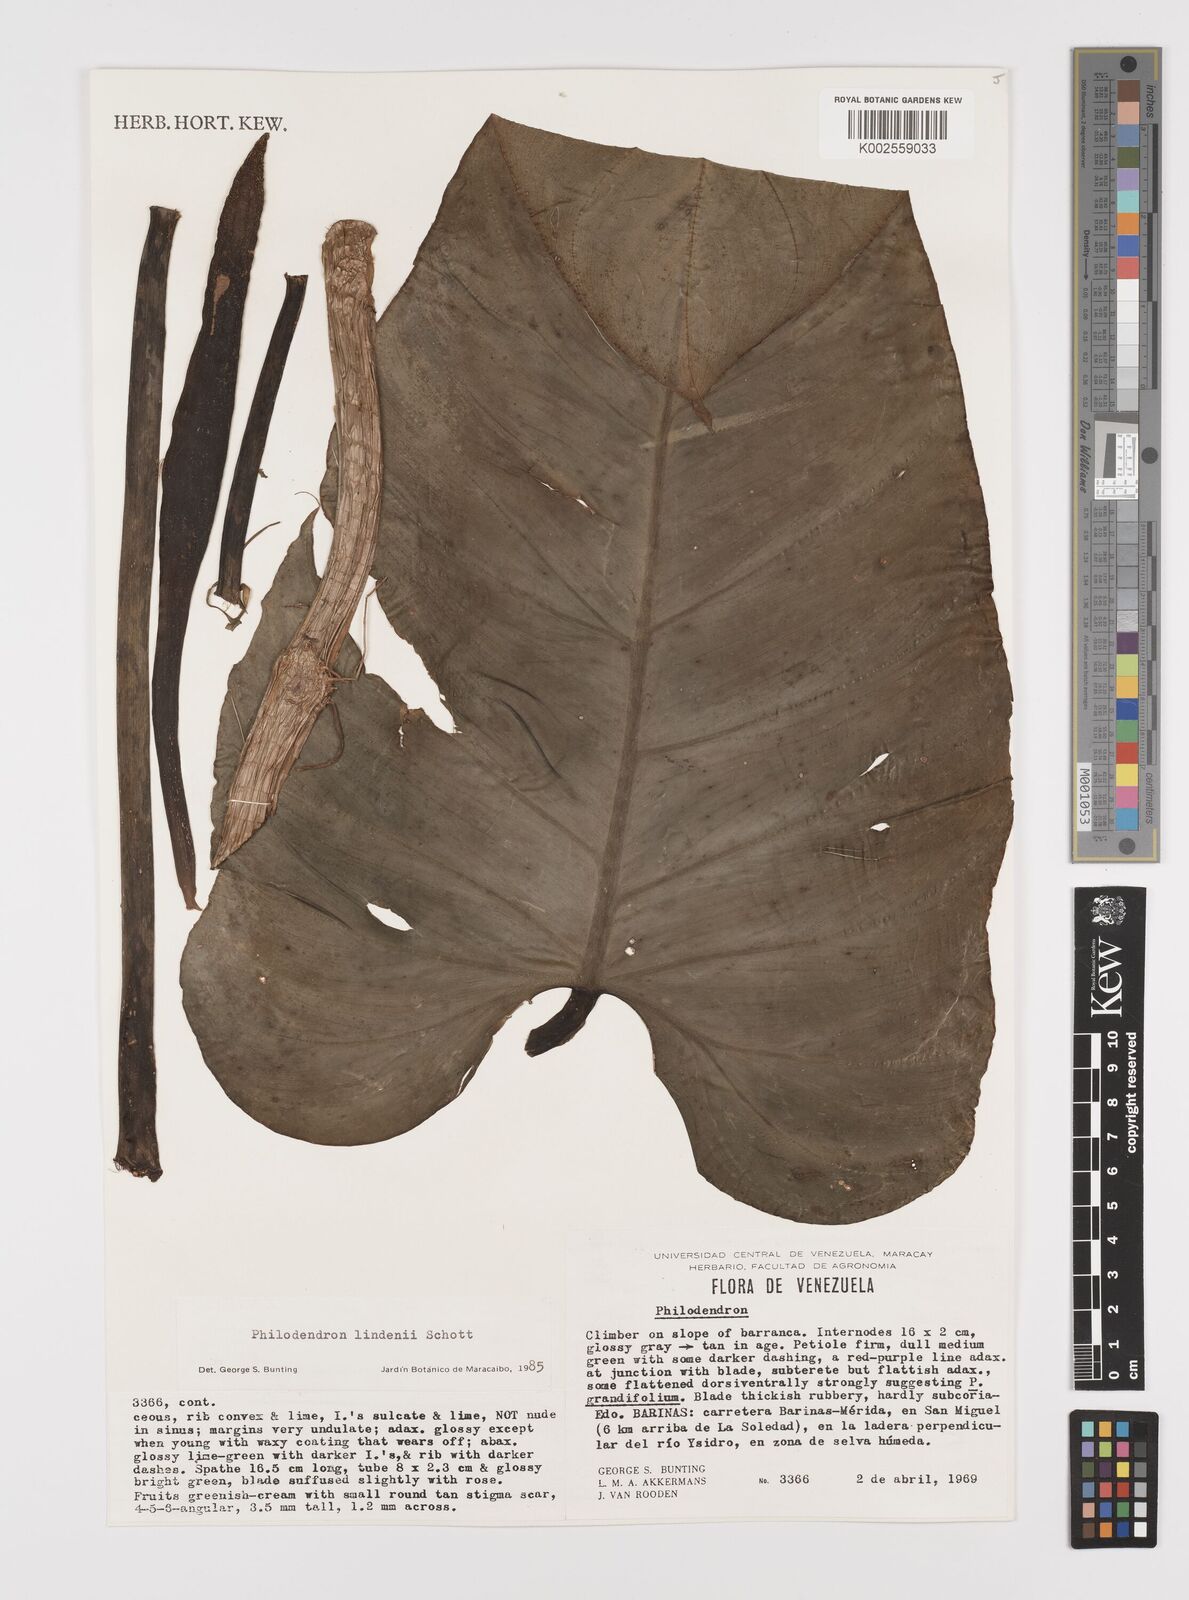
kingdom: Plantae
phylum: Tracheophyta
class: Liliopsida
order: Alismatales
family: Araceae
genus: Philodendron
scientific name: Philodendron lindenii
